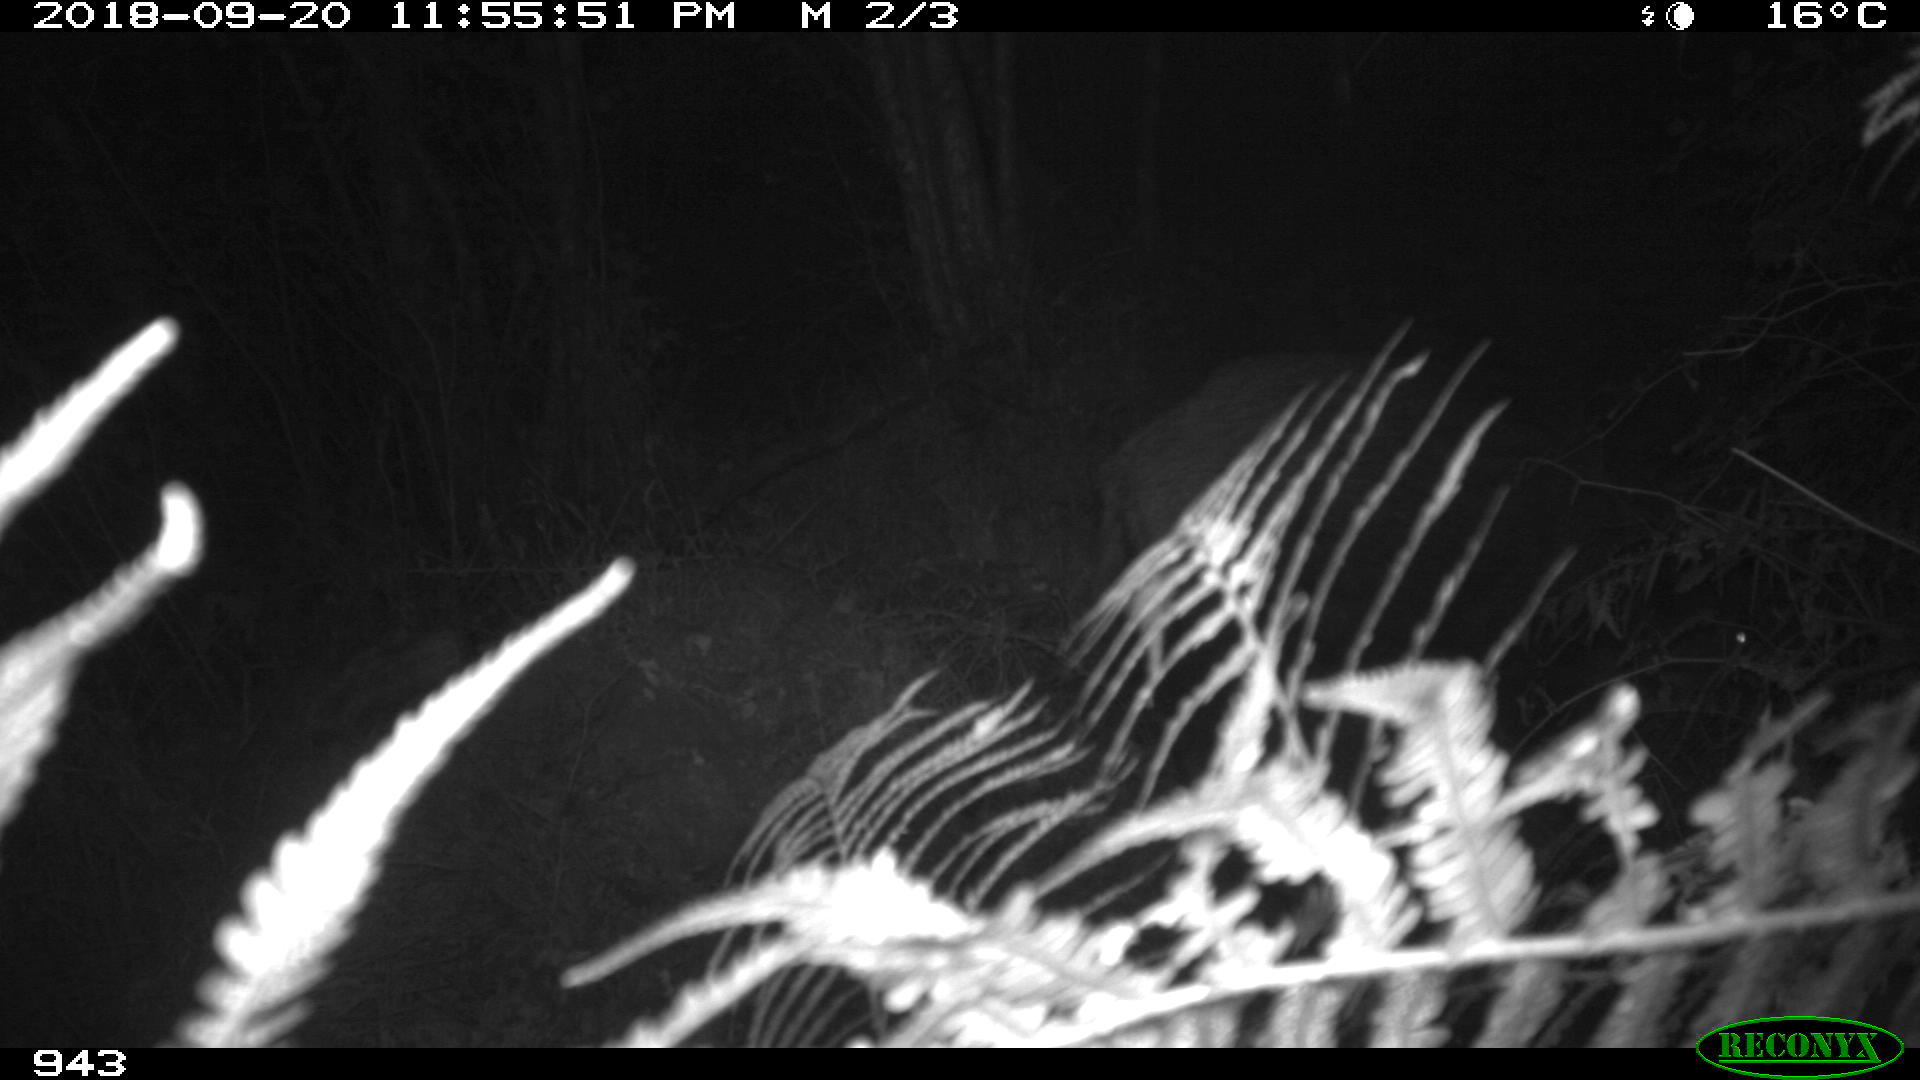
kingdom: Animalia
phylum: Chordata
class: Mammalia
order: Artiodactyla
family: Suidae
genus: Sus
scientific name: Sus scrofa
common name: Wild boar
